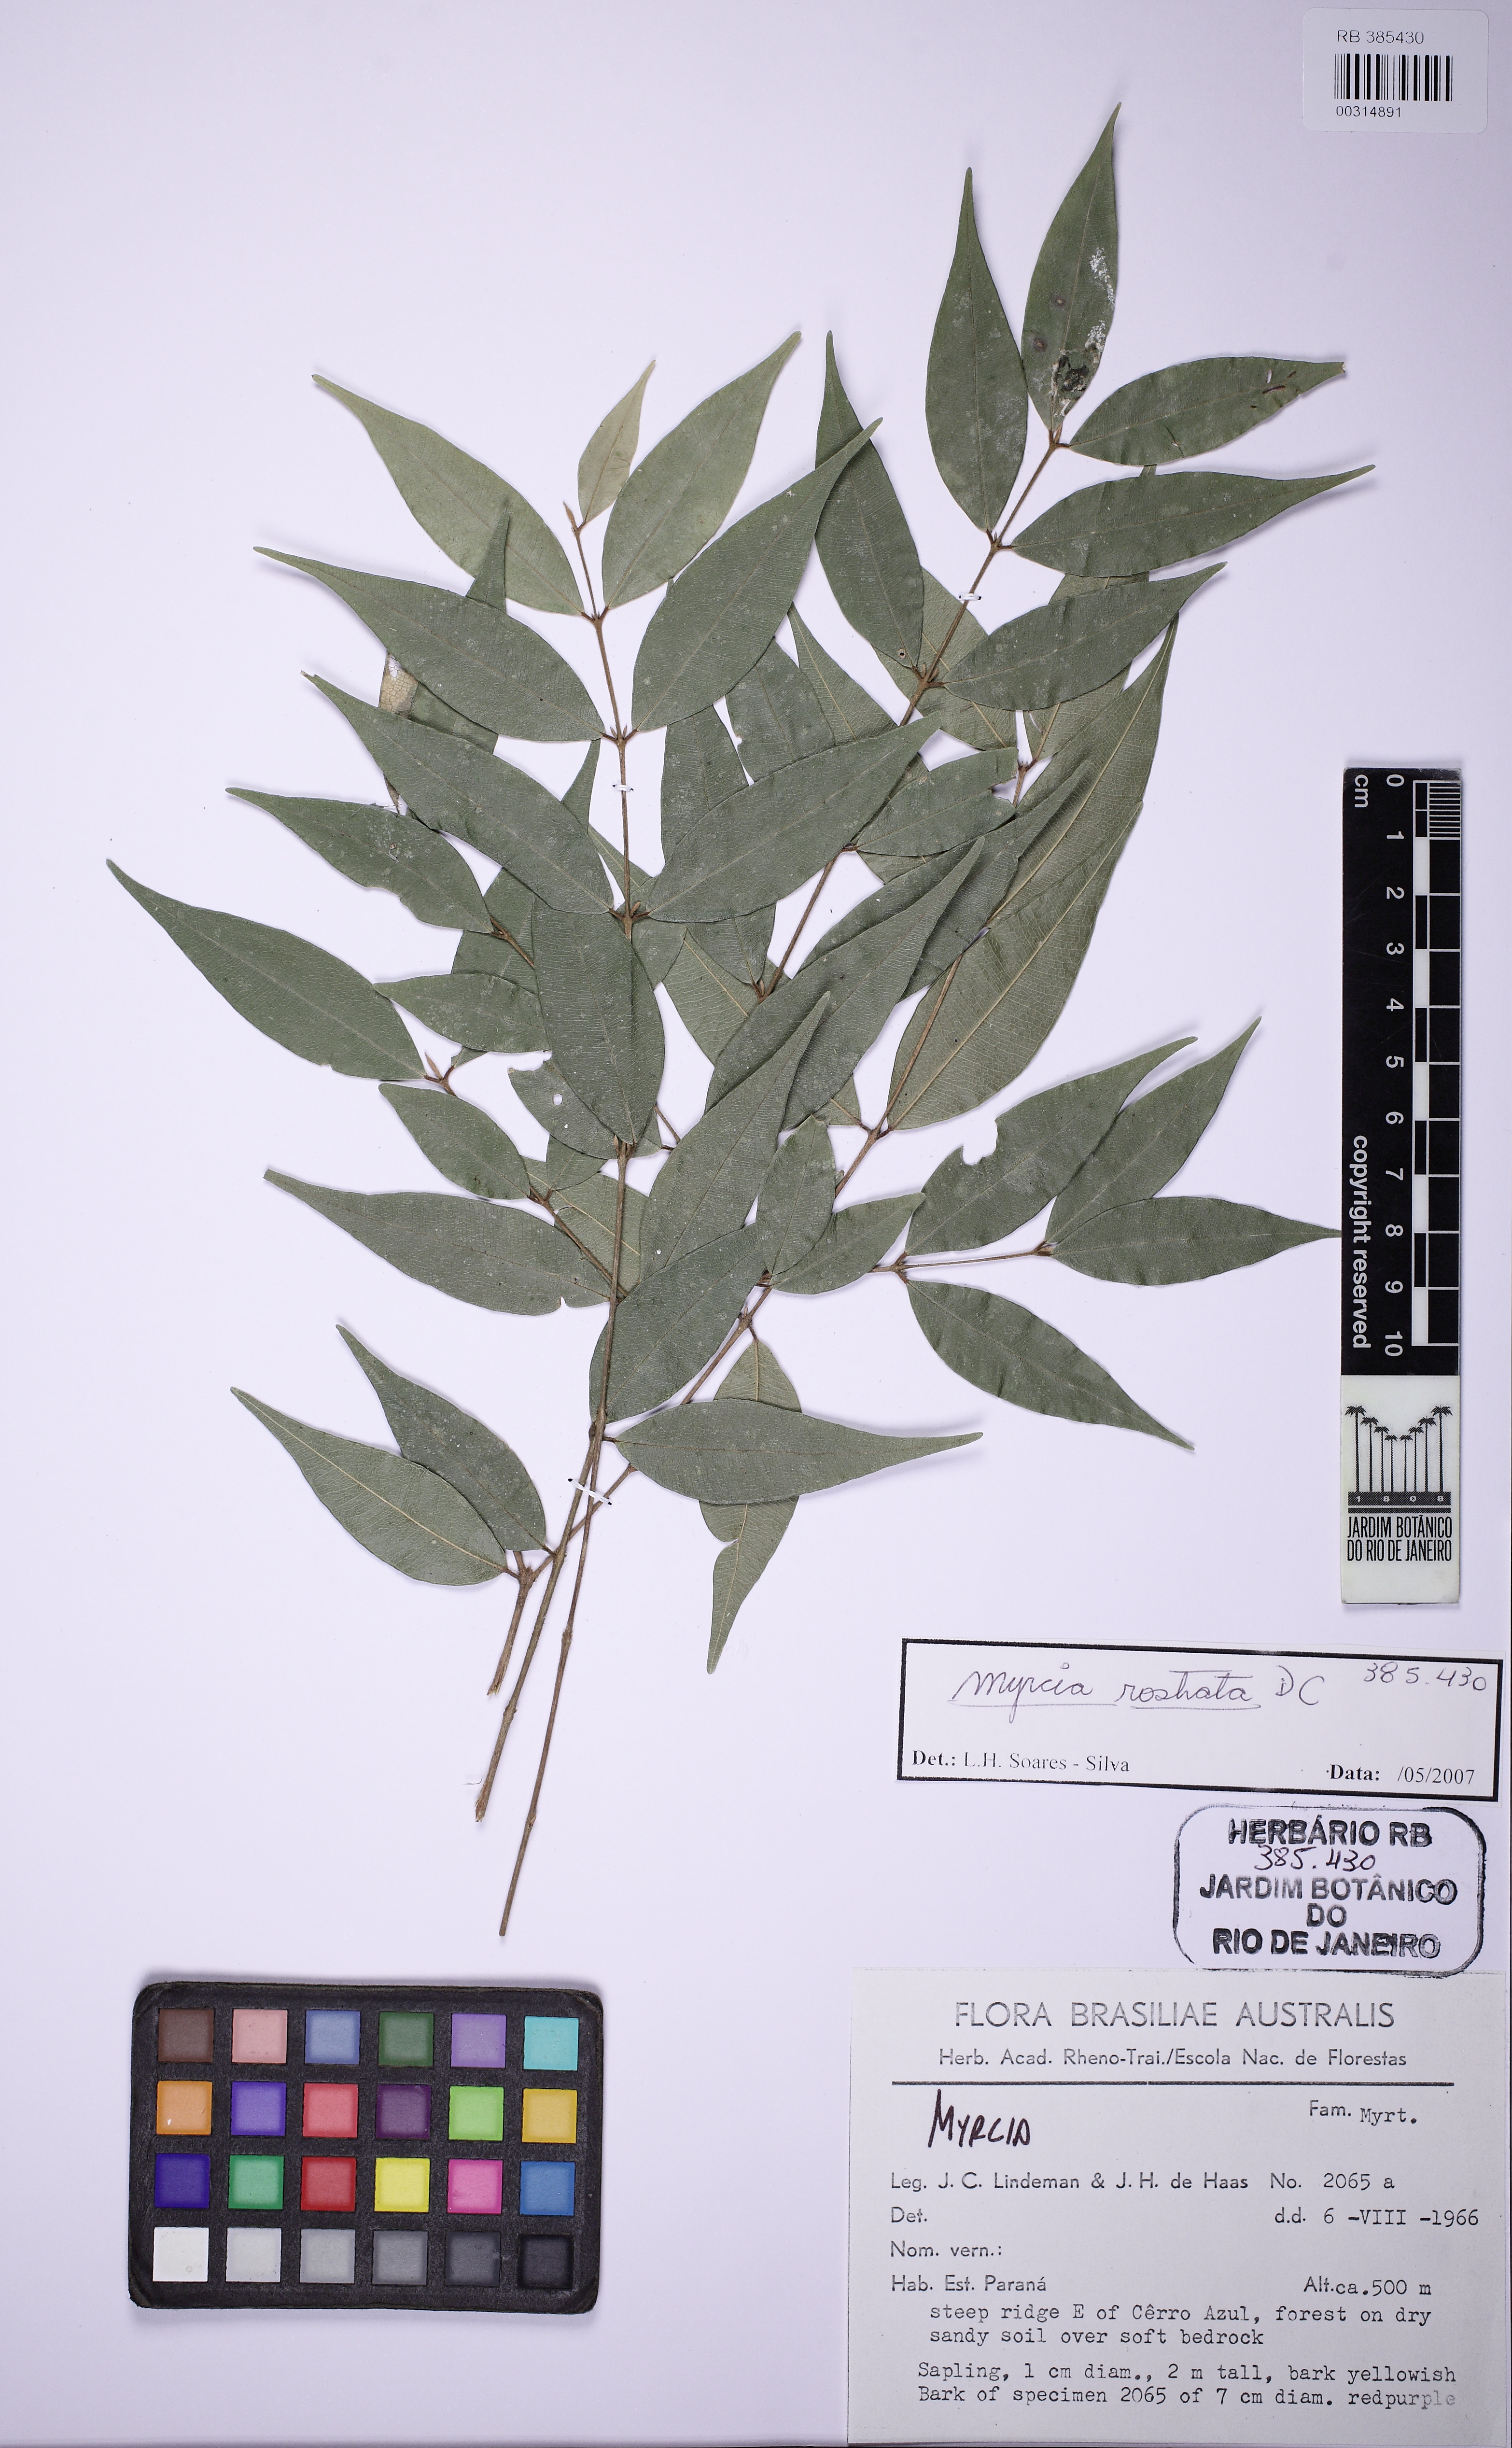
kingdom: Plantae
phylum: Tracheophyta
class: Magnoliopsida
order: Myrtales
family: Myrtaceae
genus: Myrcia
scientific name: Myrcia splendens
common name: Surinam cherry
